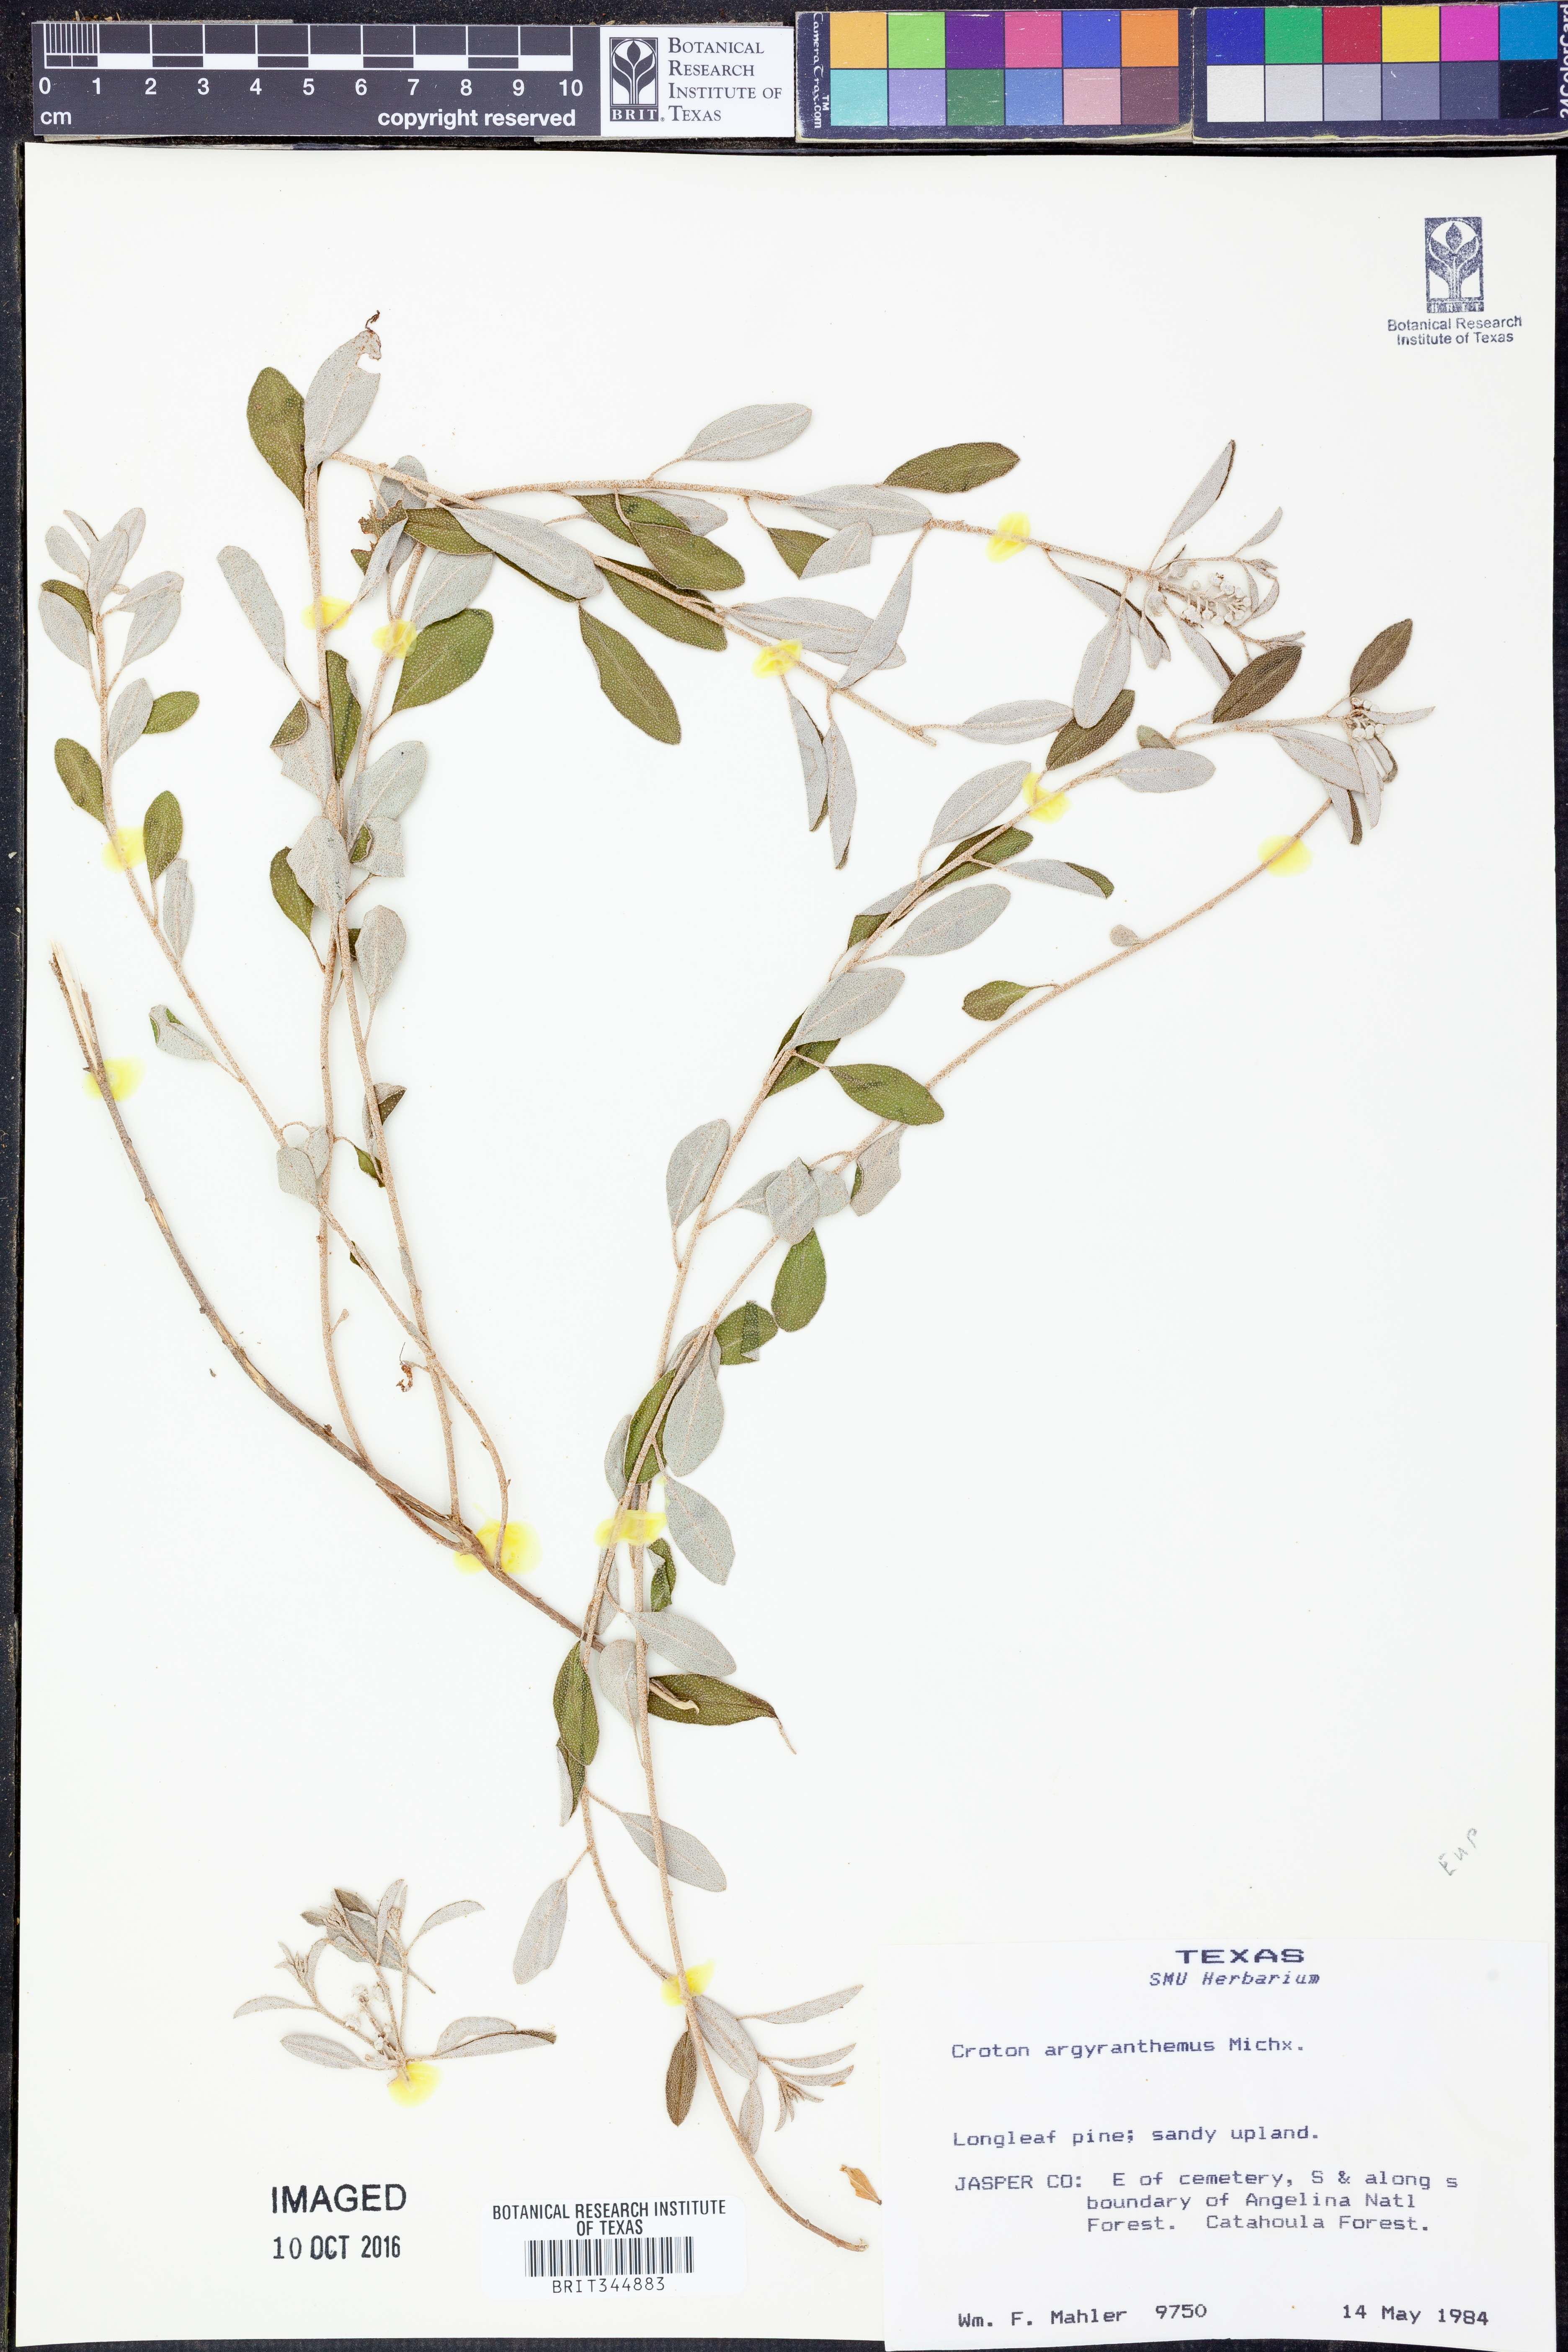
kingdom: Plantae
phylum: Tracheophyta
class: Magnoliopsida
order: Malpighiales
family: Euphorbiaceae
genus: Croton
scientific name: Croton argyranthemus
